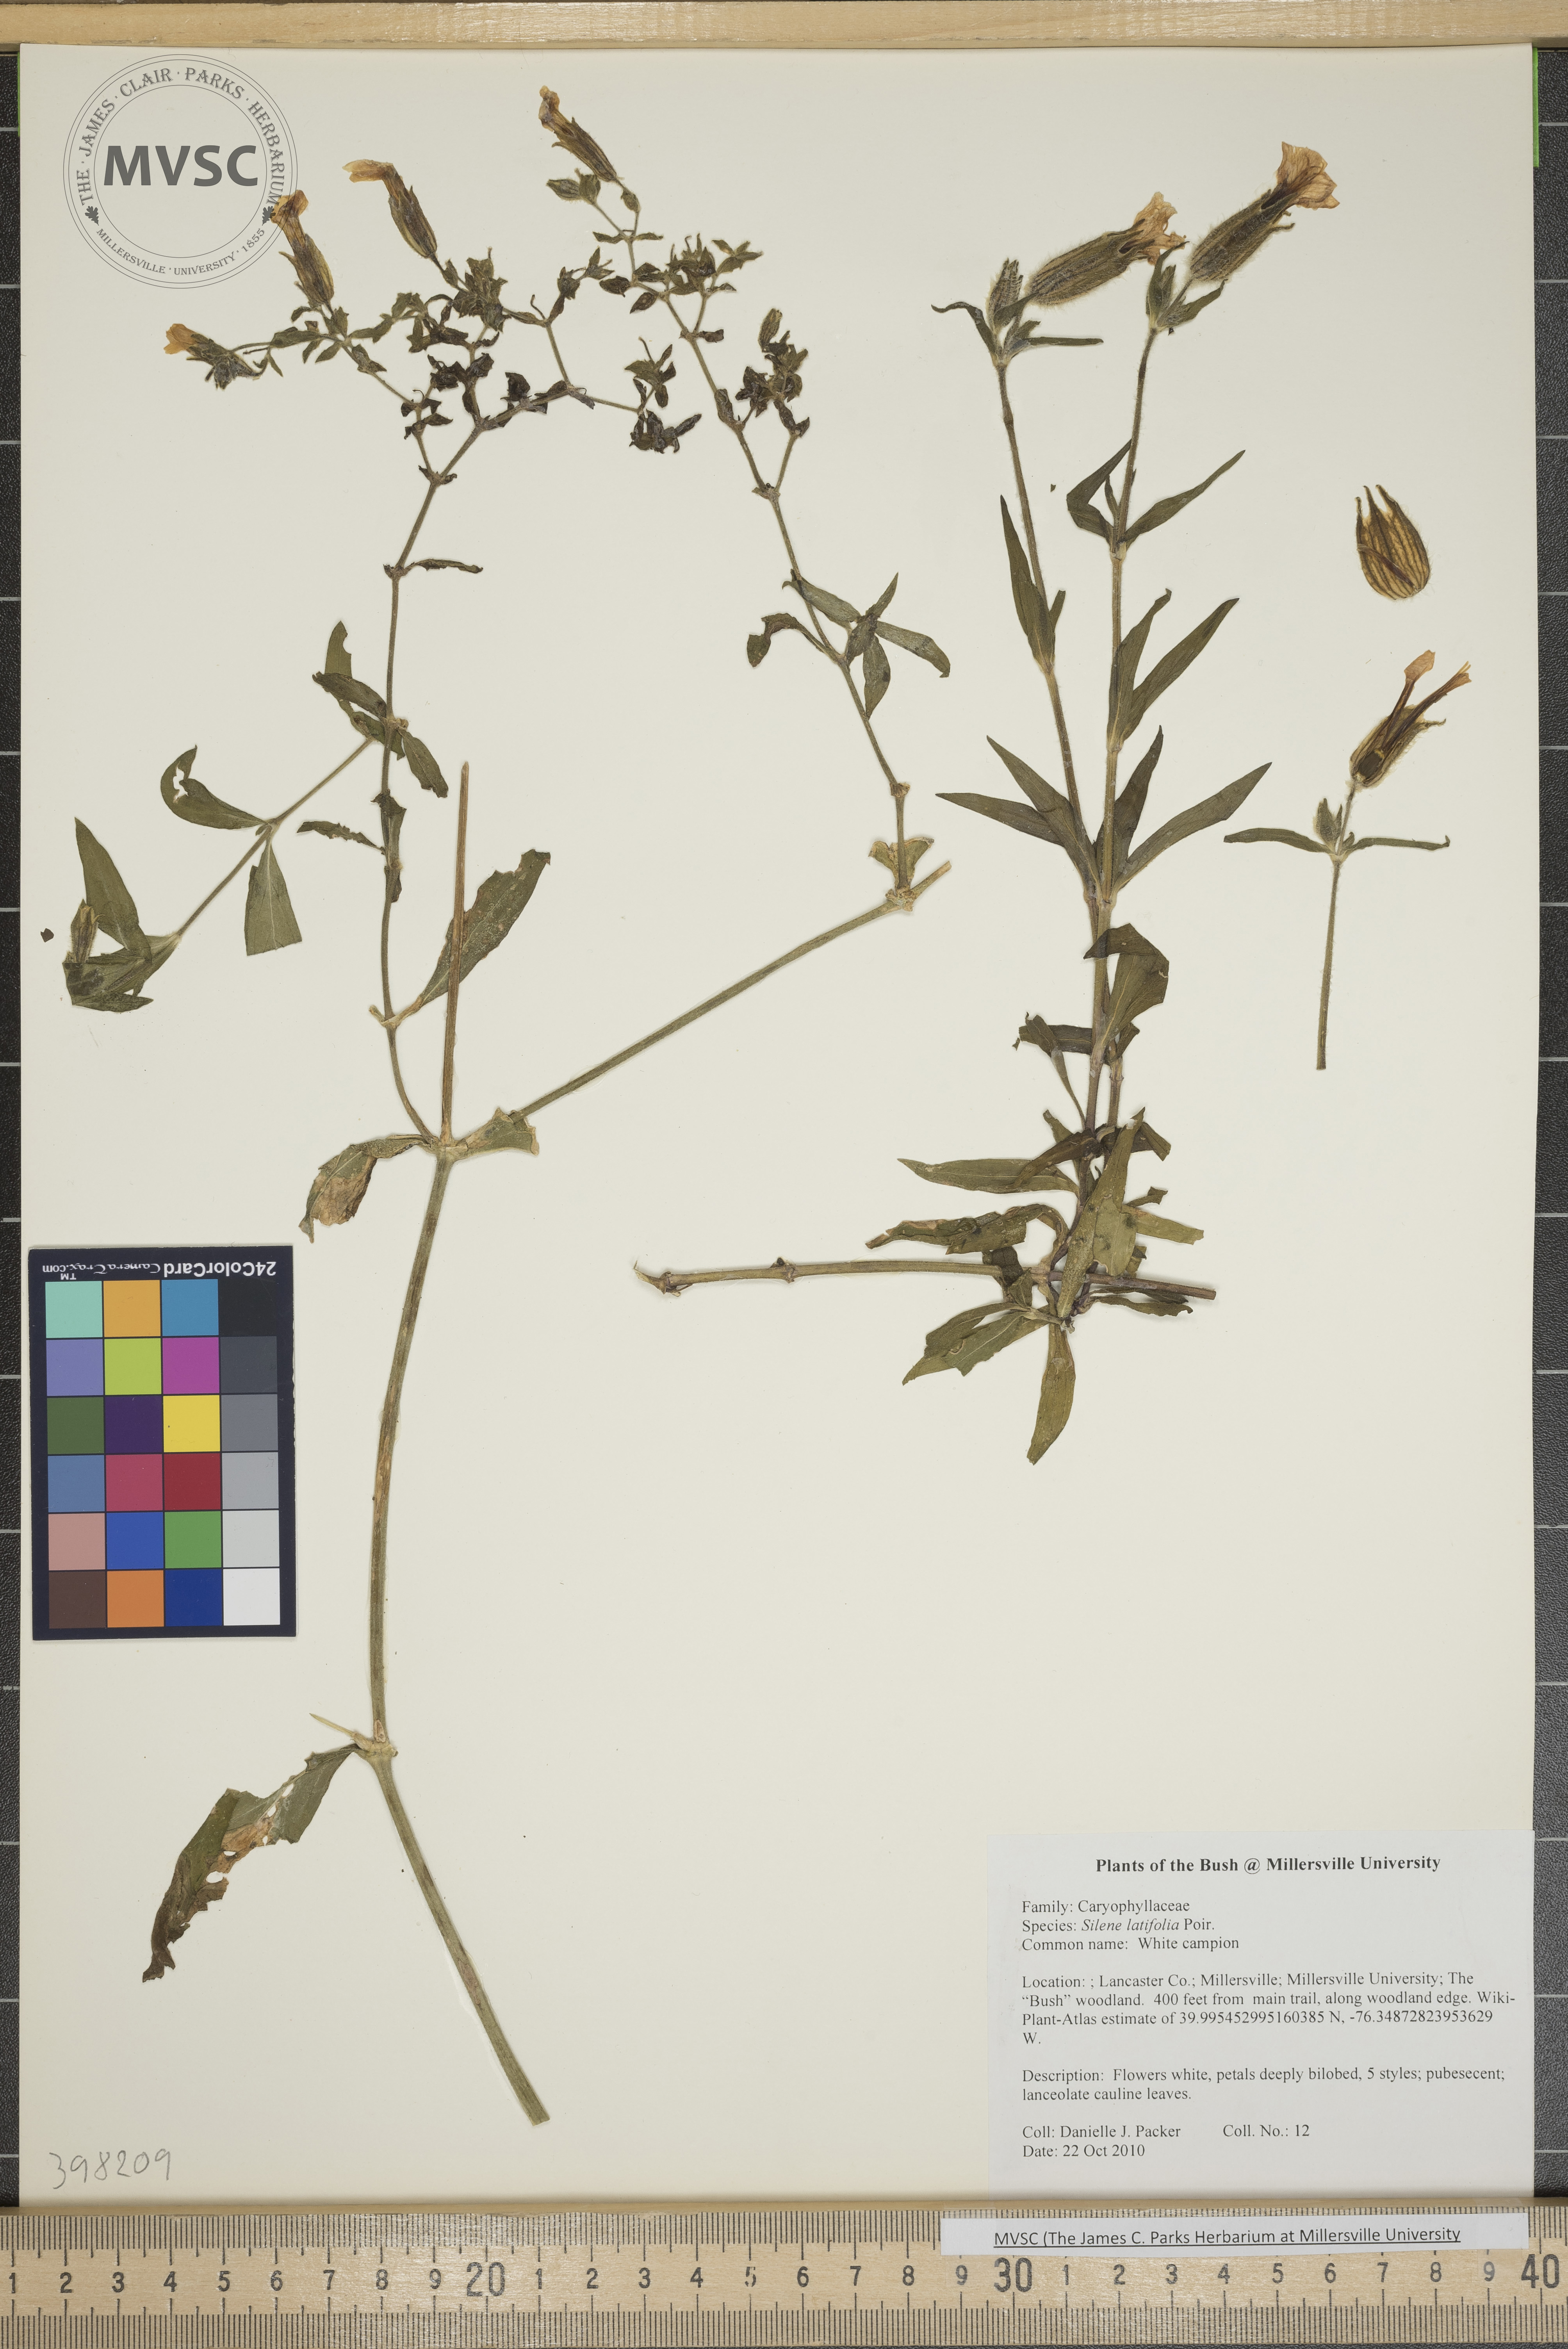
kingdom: Plantae
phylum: Tracheophyta
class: Magnoliopsida
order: Caryophyllales
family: Caryophyllaceae
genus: Silene
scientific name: Silene latifolia
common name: White campion
